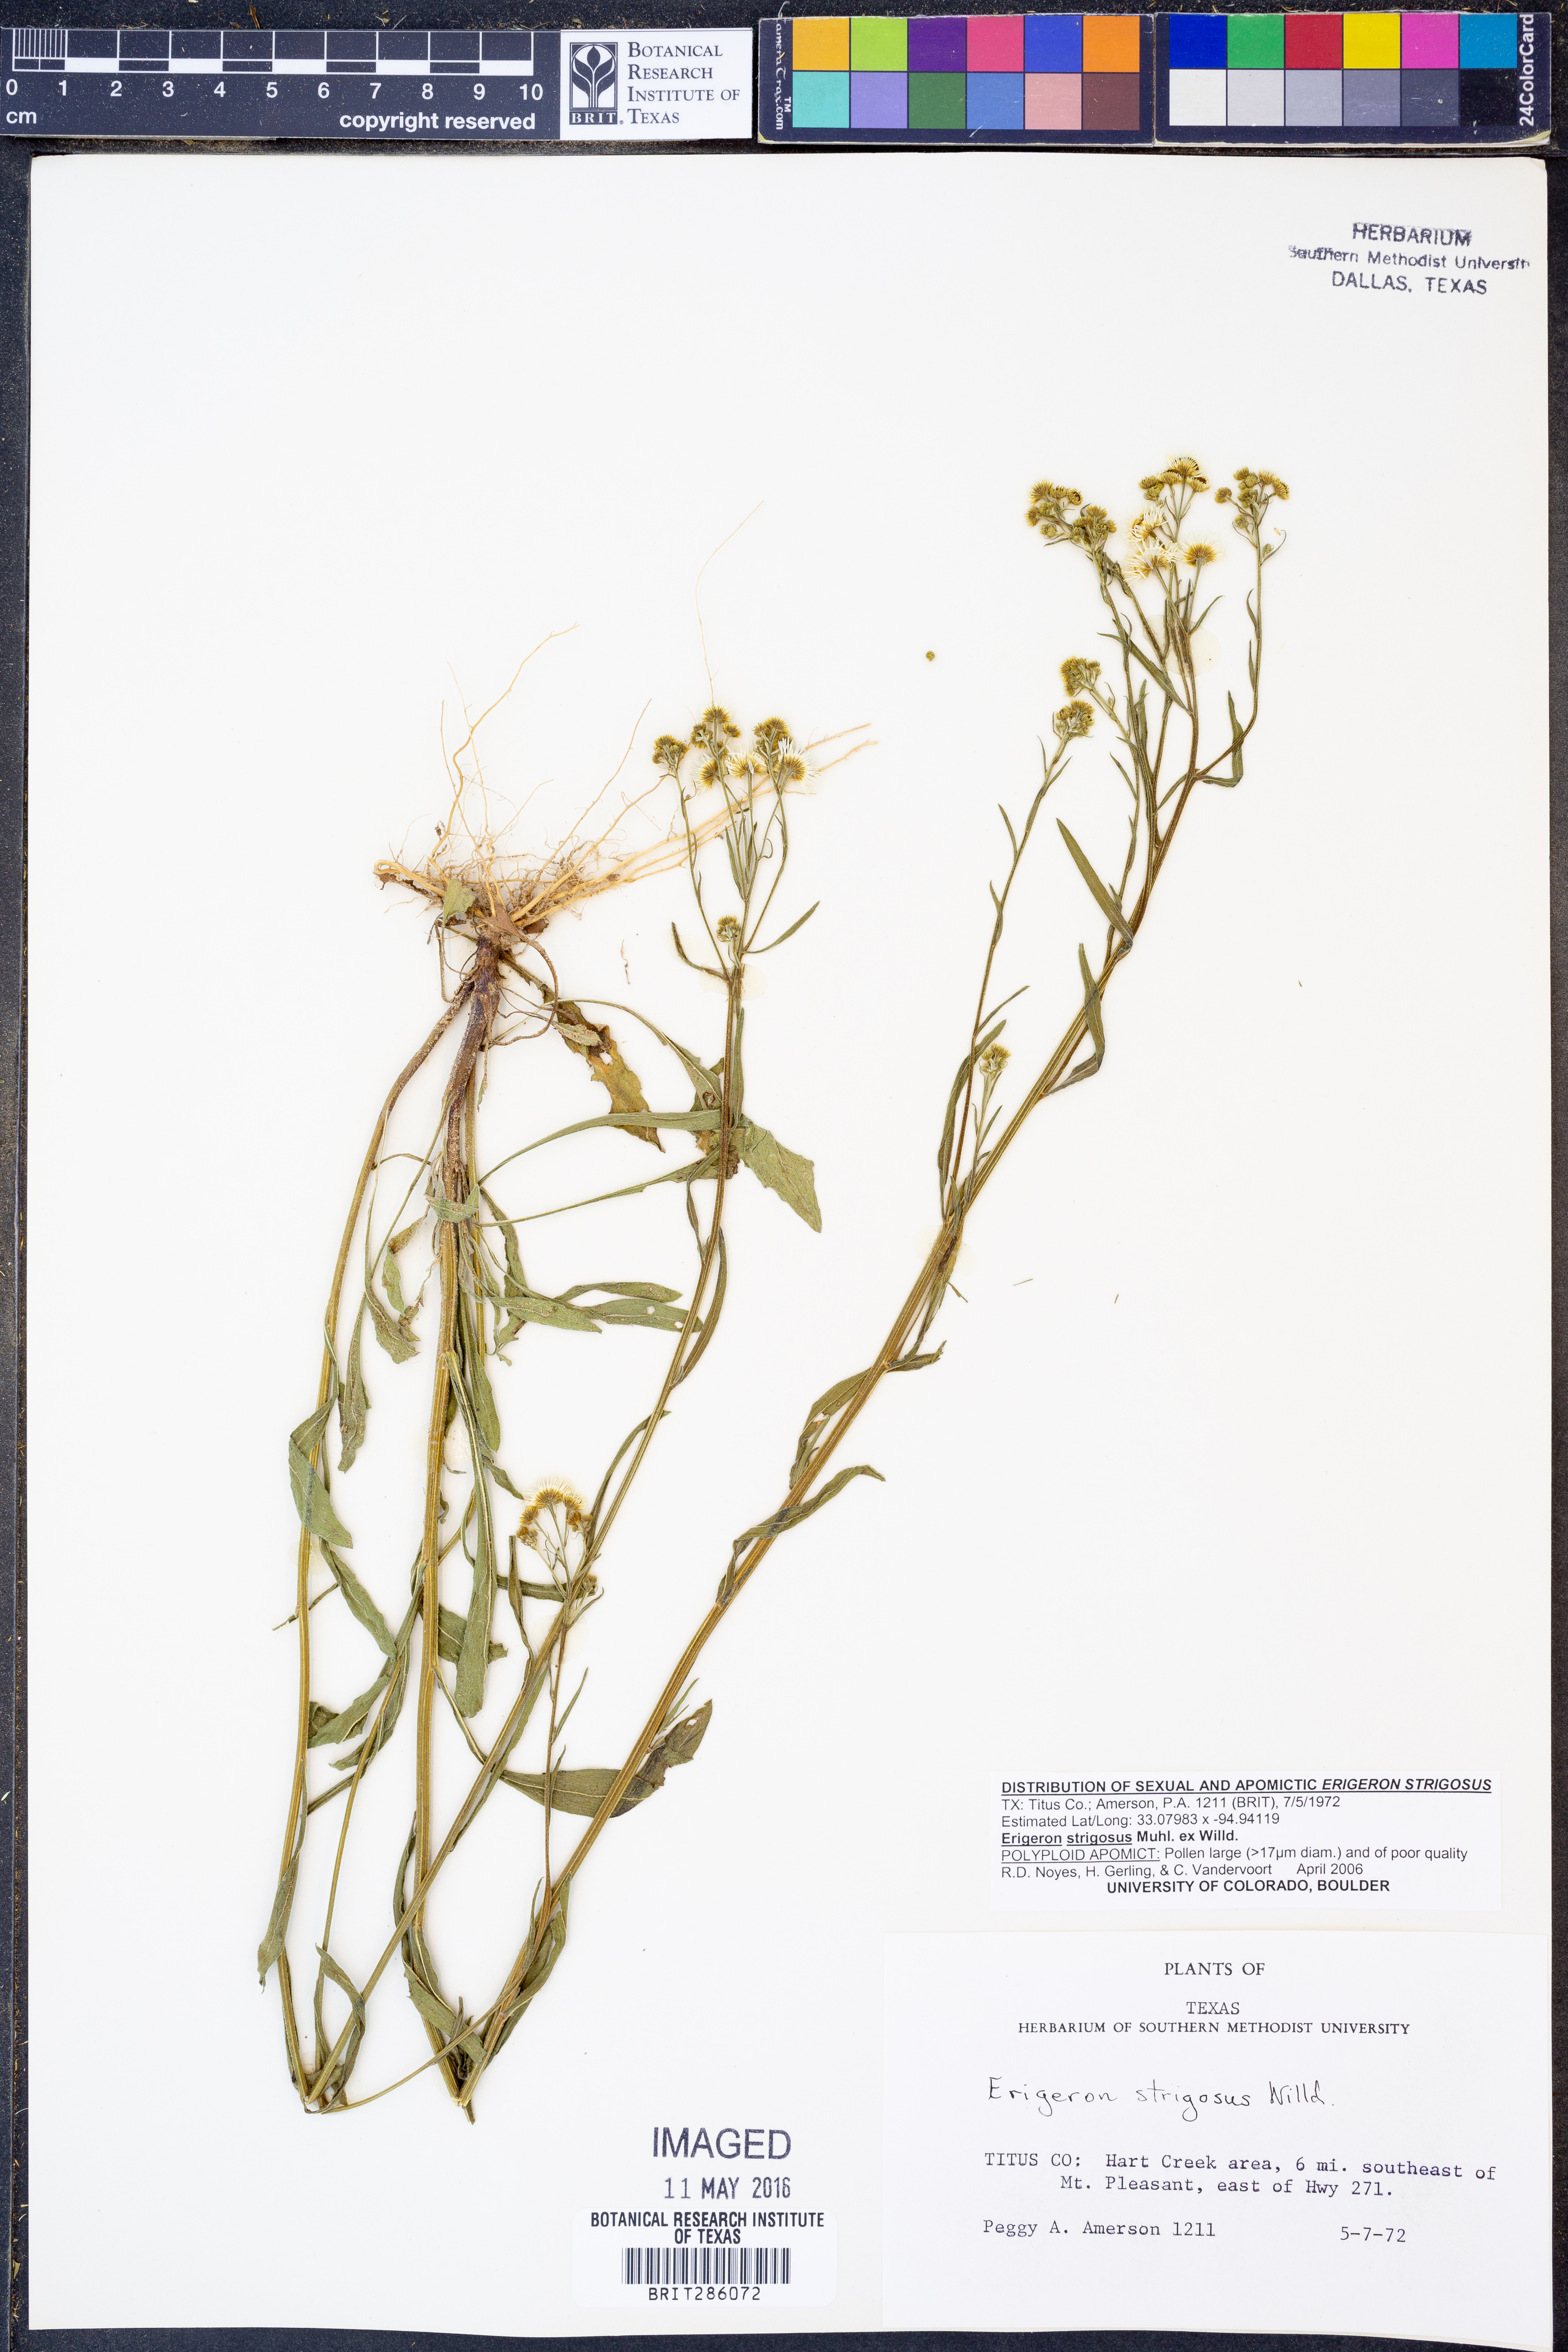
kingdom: Plantae
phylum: Tracheophyta
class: Magnoliopsida
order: Asterales
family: Asteraceae
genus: Erigeron
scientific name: Erigeron strigosus
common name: Common eastern fleabane
